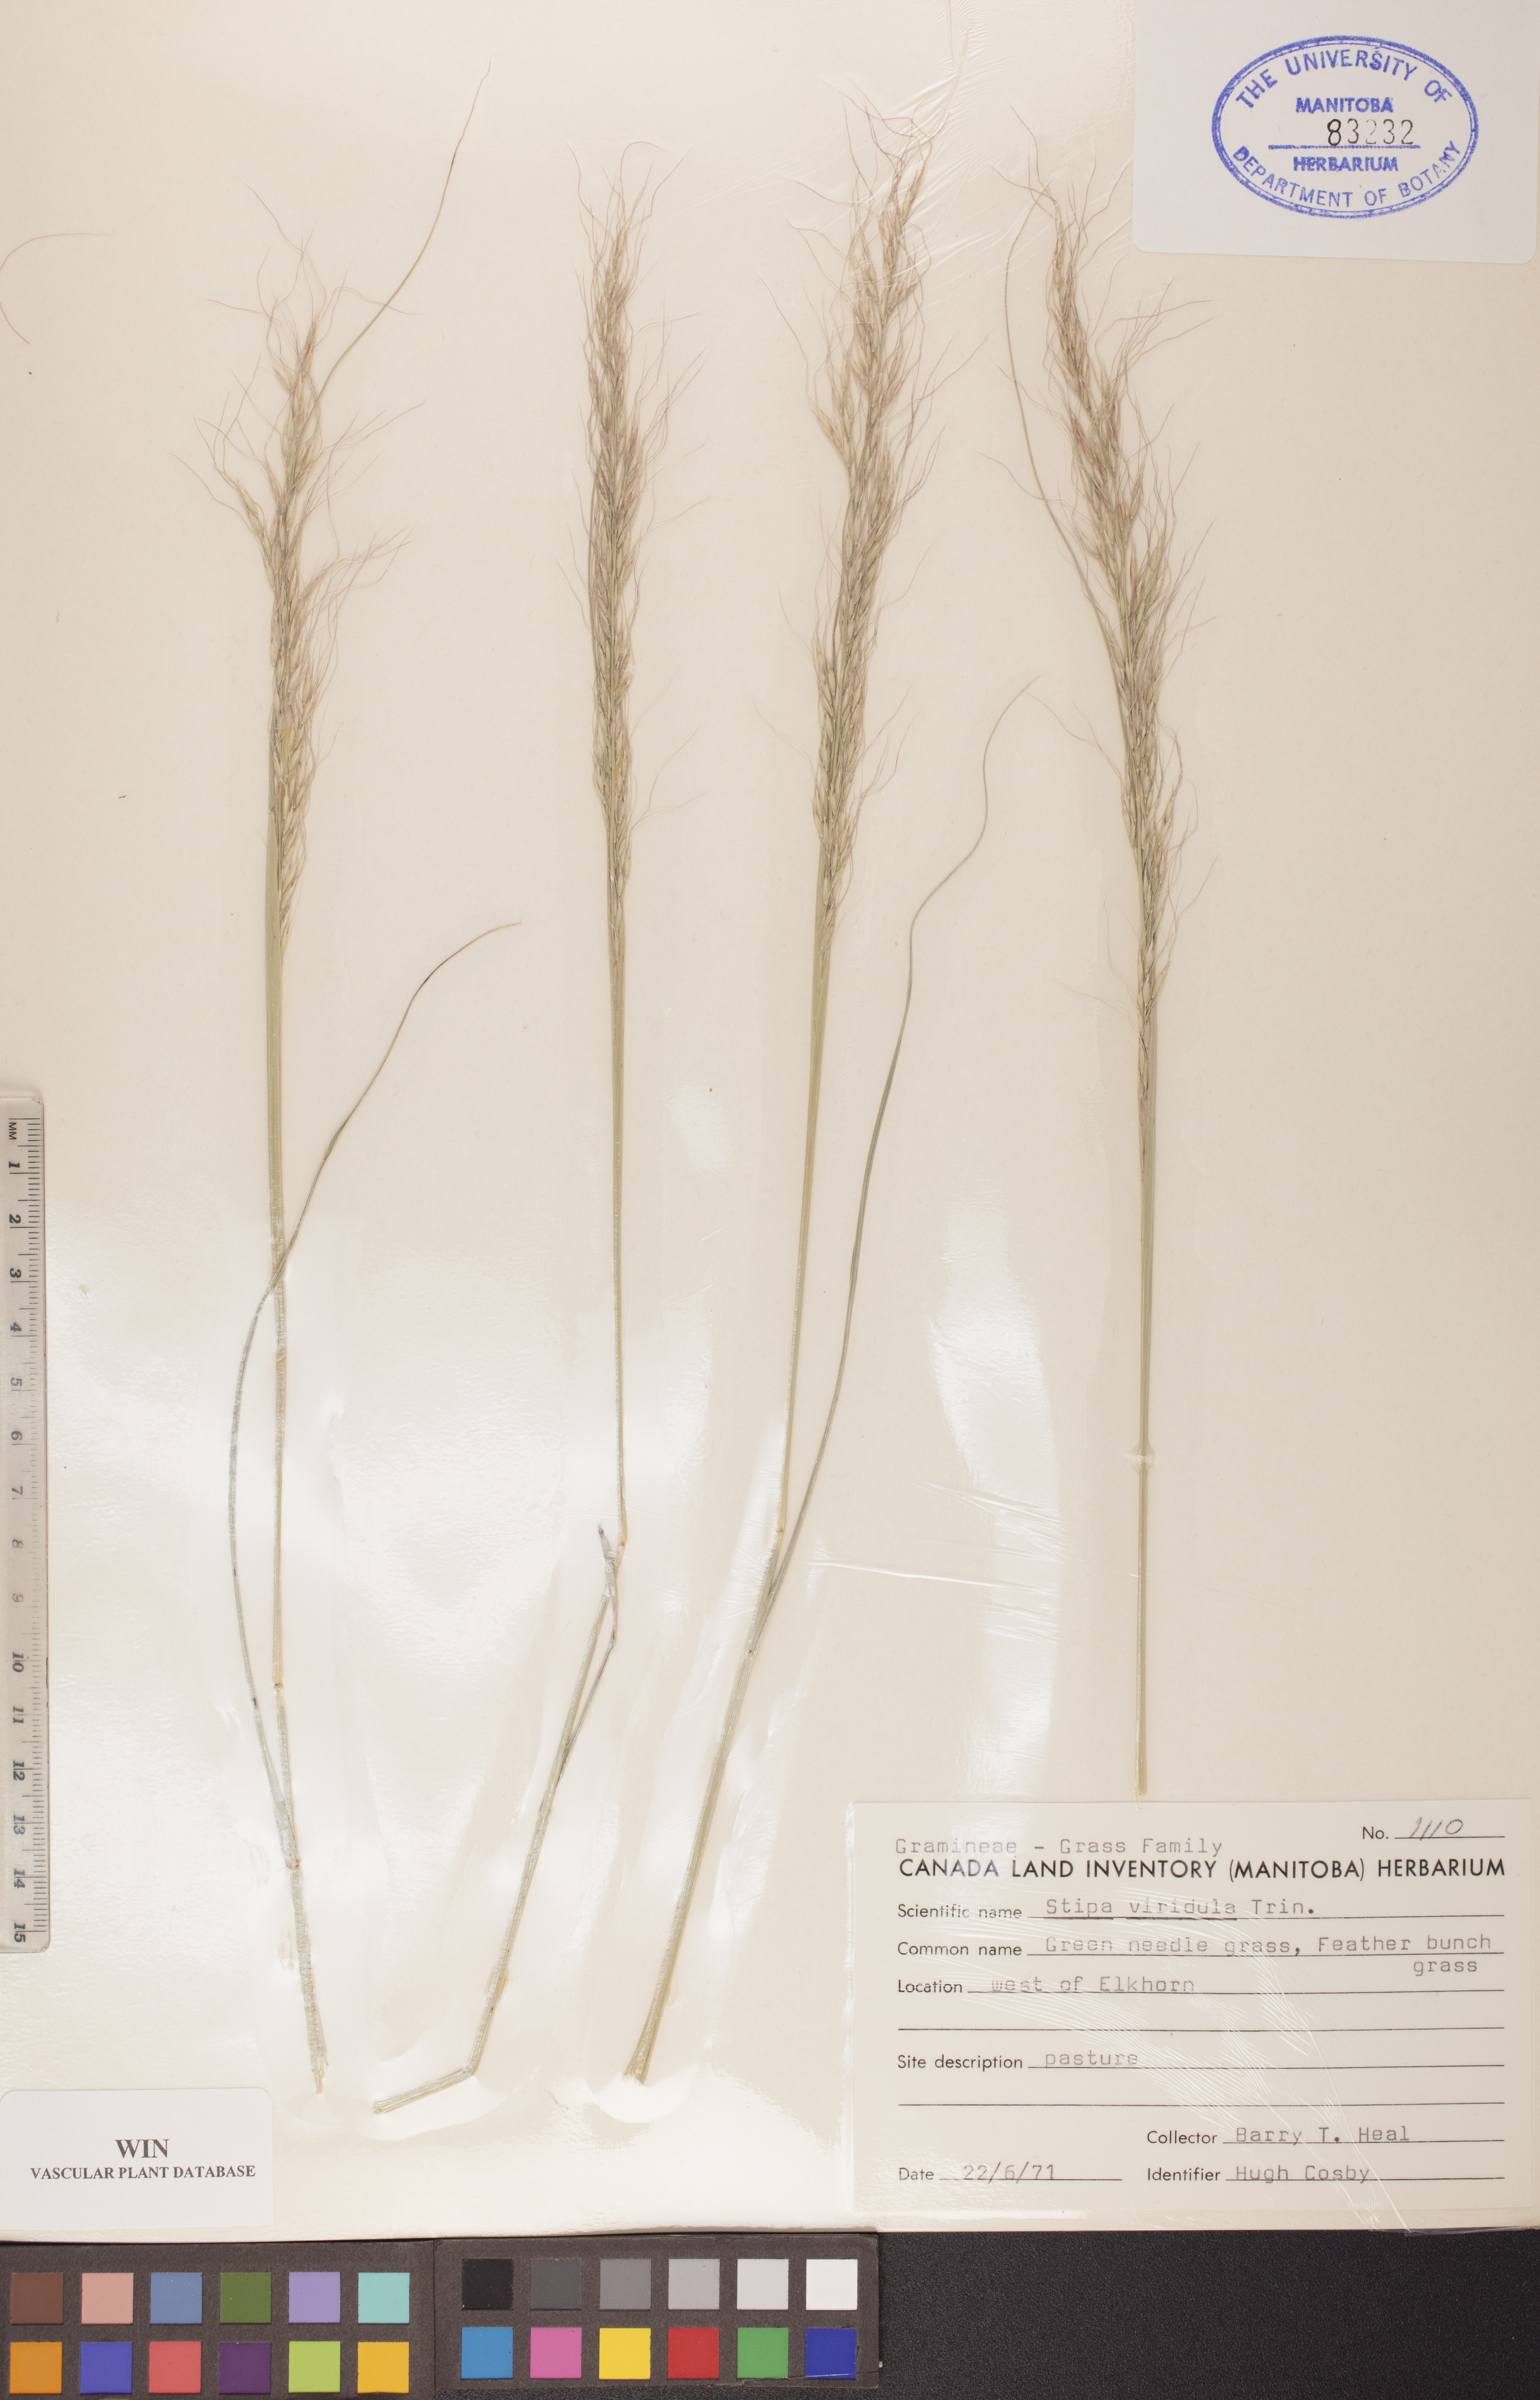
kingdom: Plantae
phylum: Tracheophyta
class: Liliopsida
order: Poales
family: Poaceae
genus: Nassella
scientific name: Nassella viridula
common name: Green needlegrass
